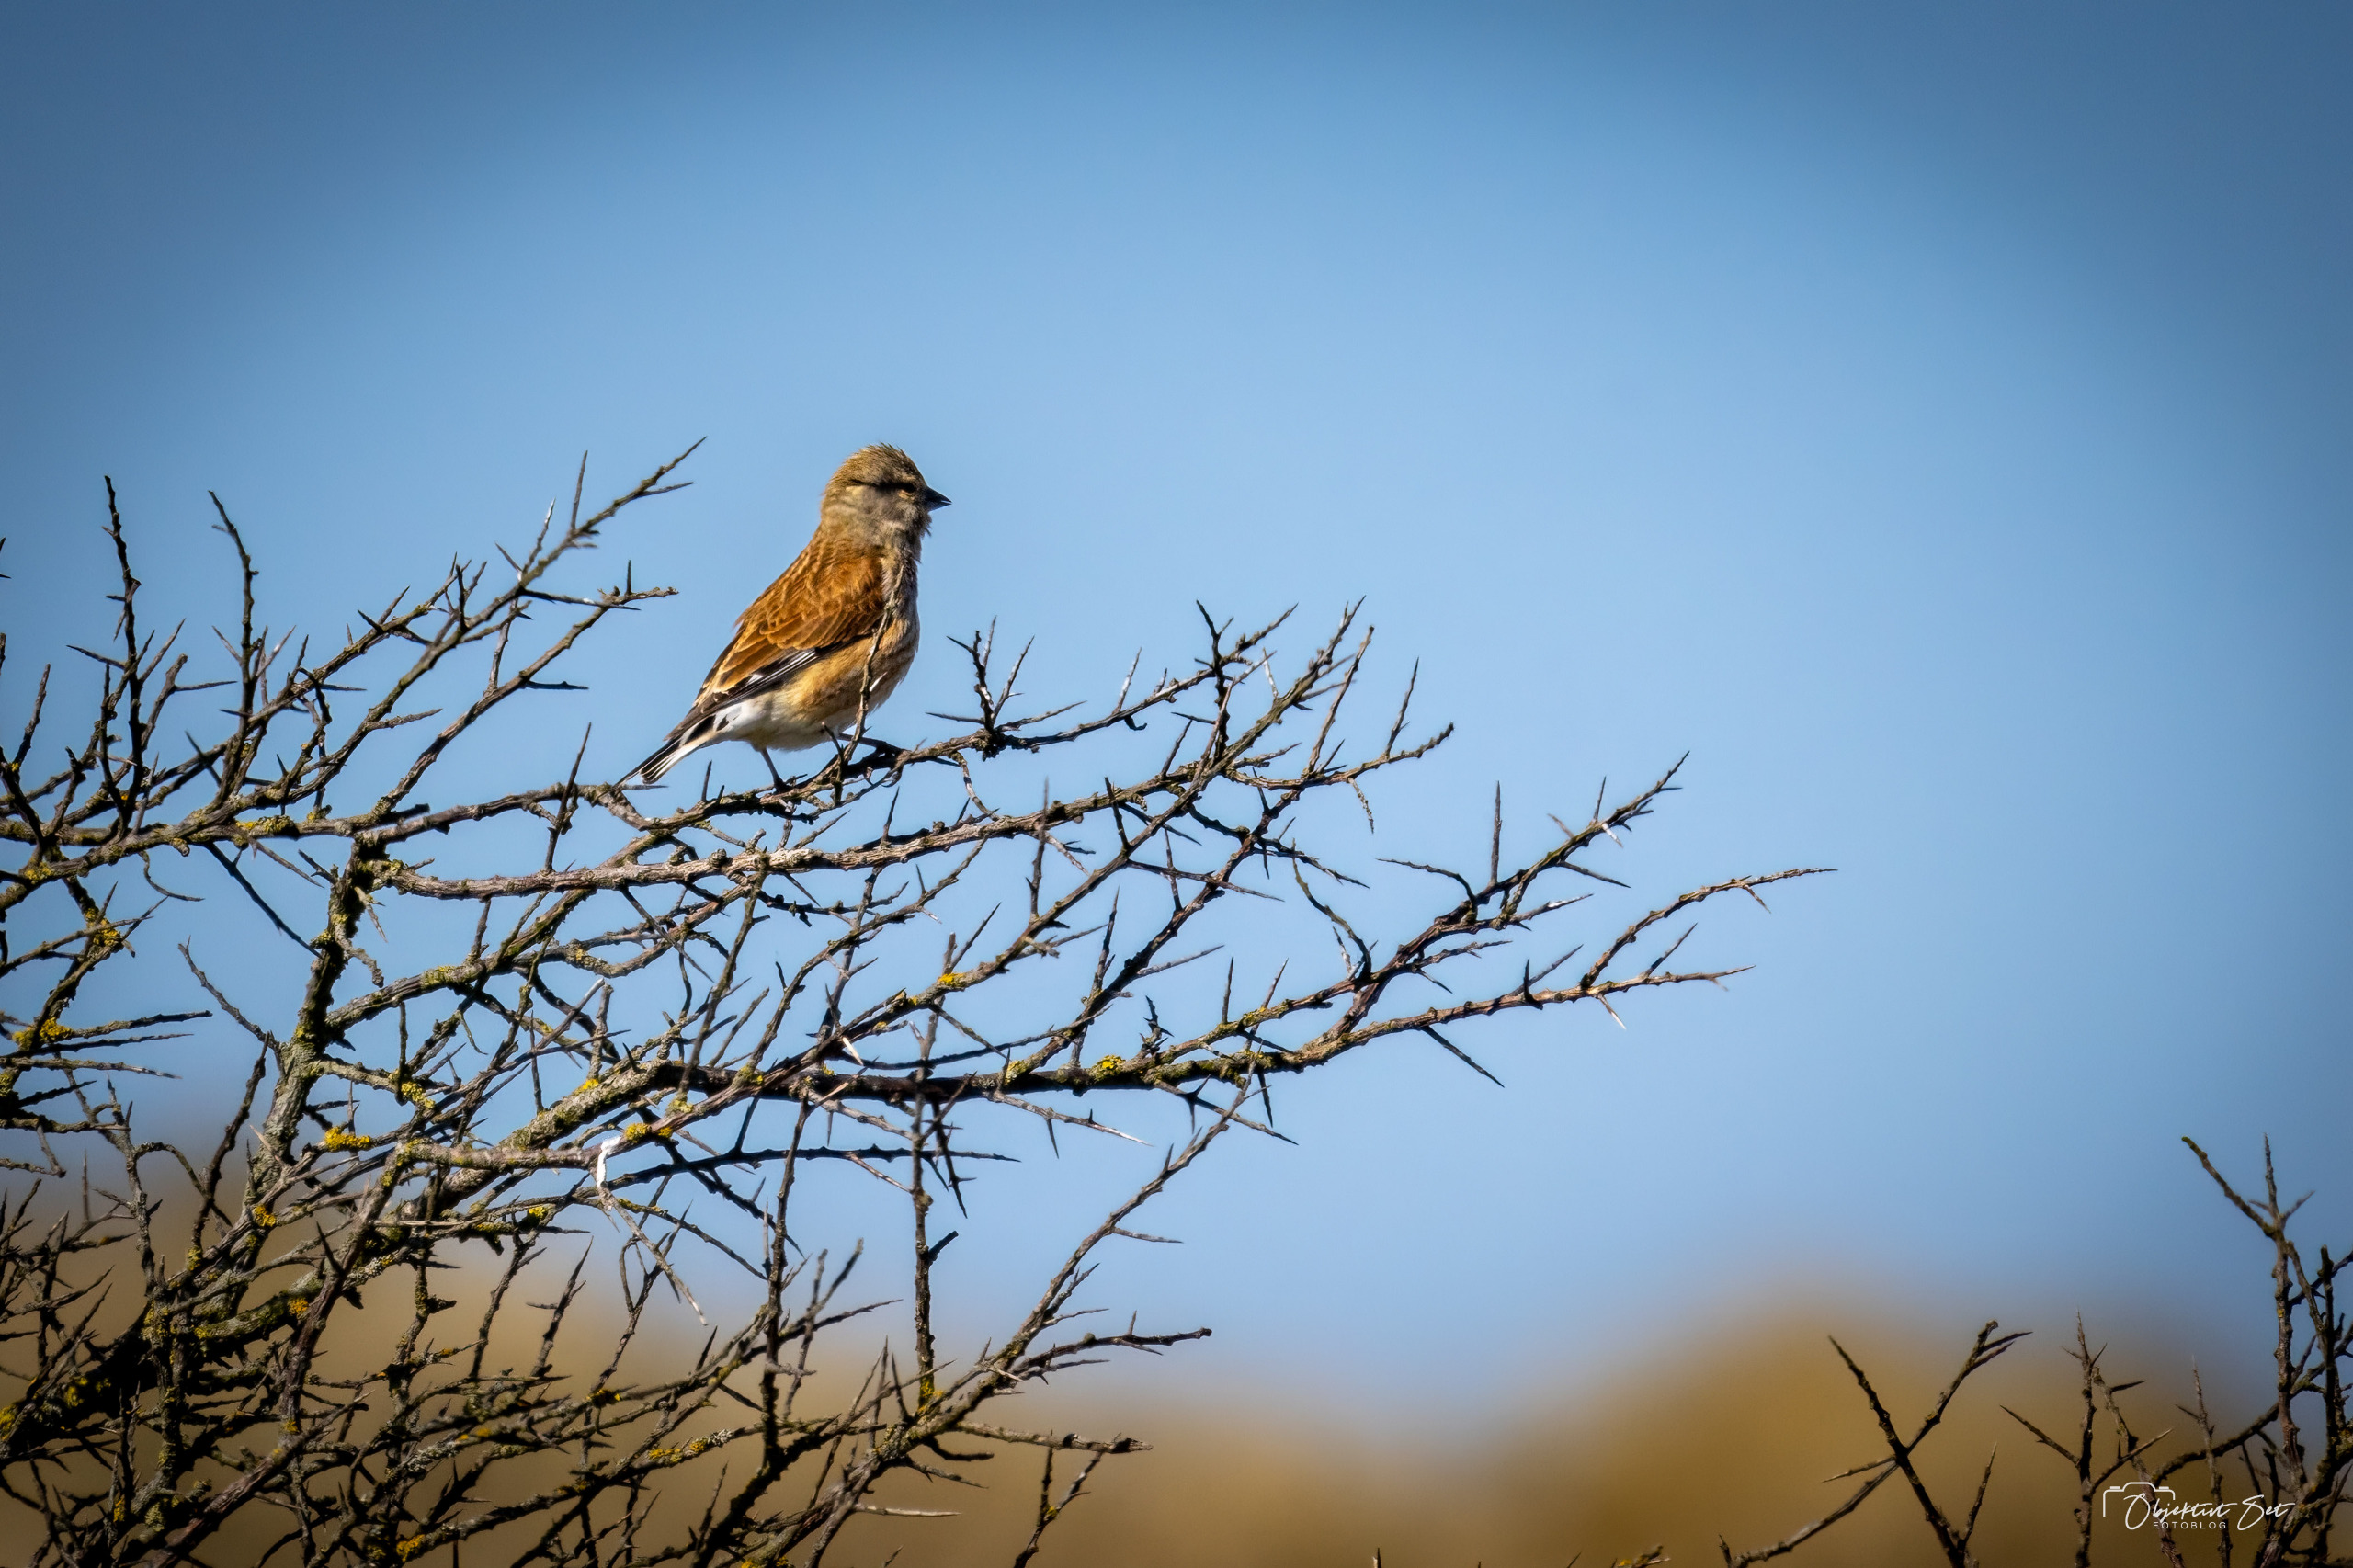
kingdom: Animalia
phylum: Chordata
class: Aves
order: Passeriformes
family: Fringillidae
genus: Linaria
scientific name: Linaria cannabina
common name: Tornirisk
